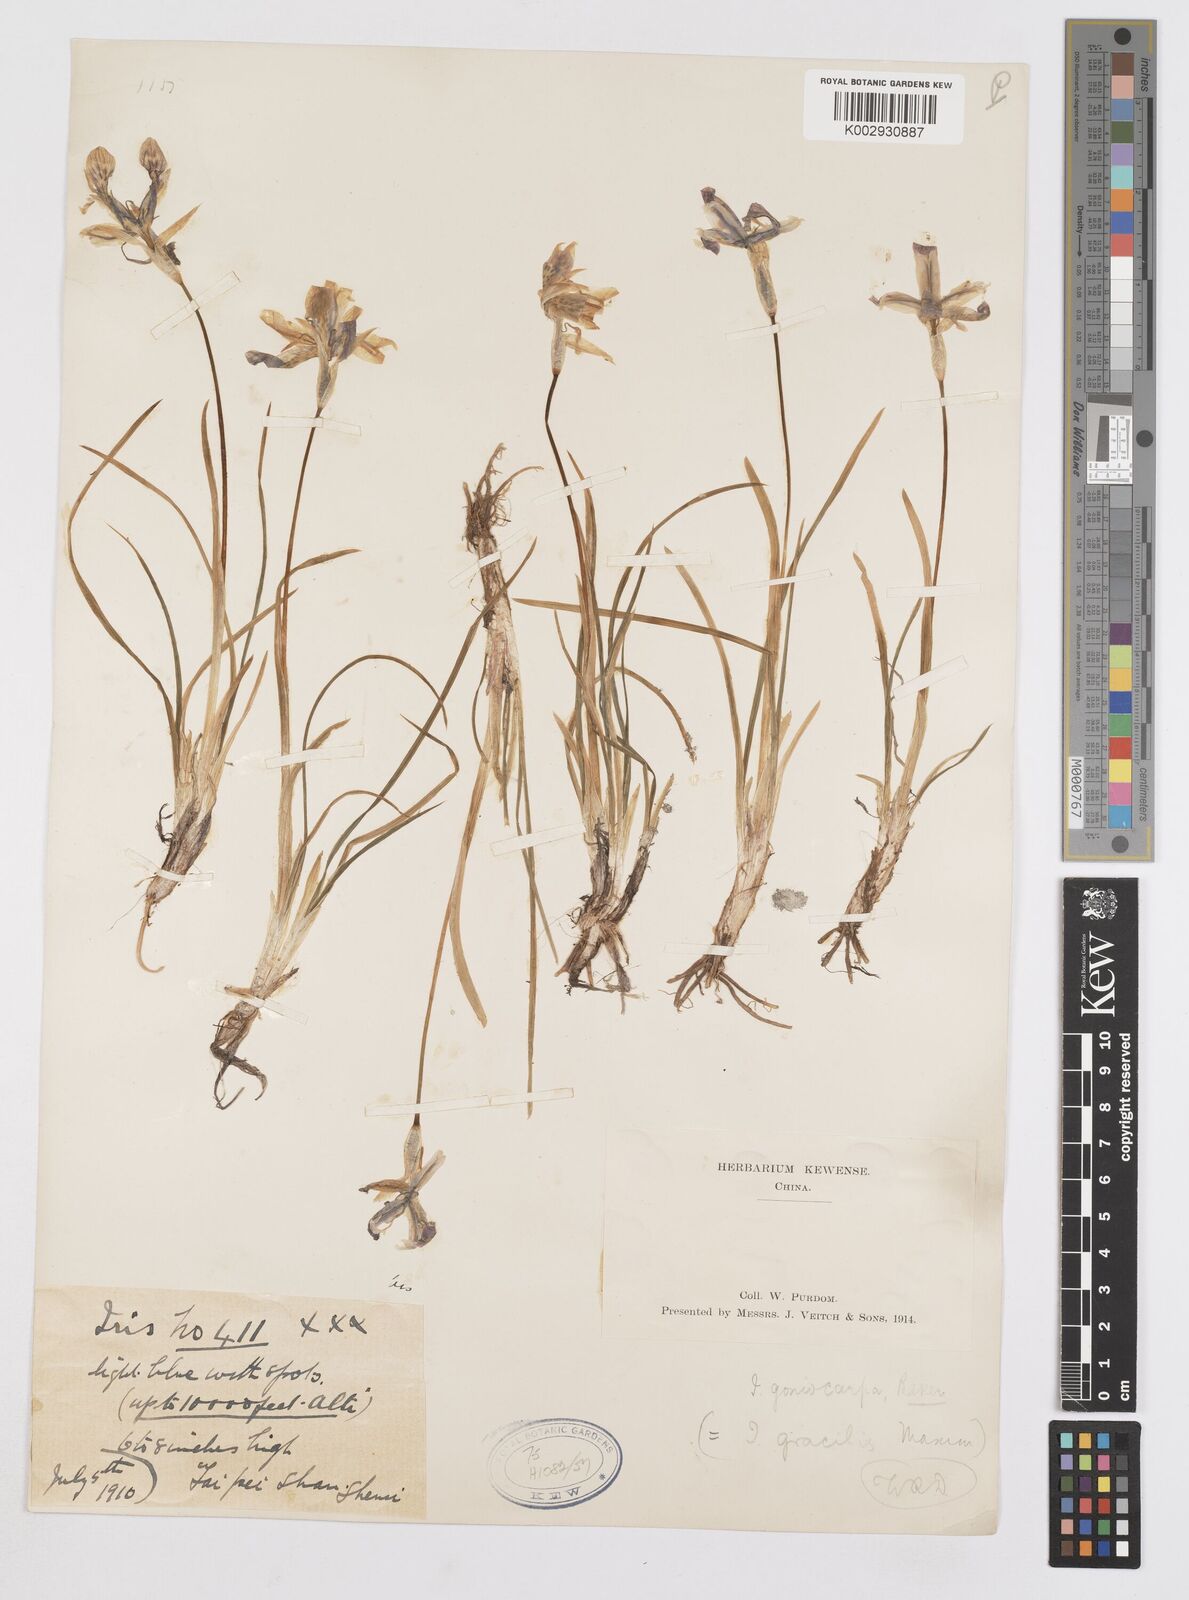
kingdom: Plantae
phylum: Tracheophyta
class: Liliopsida
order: Asparagales
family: Iridaceae
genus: Iris
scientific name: Iris goniocarpa
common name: Angular-fruit iris
